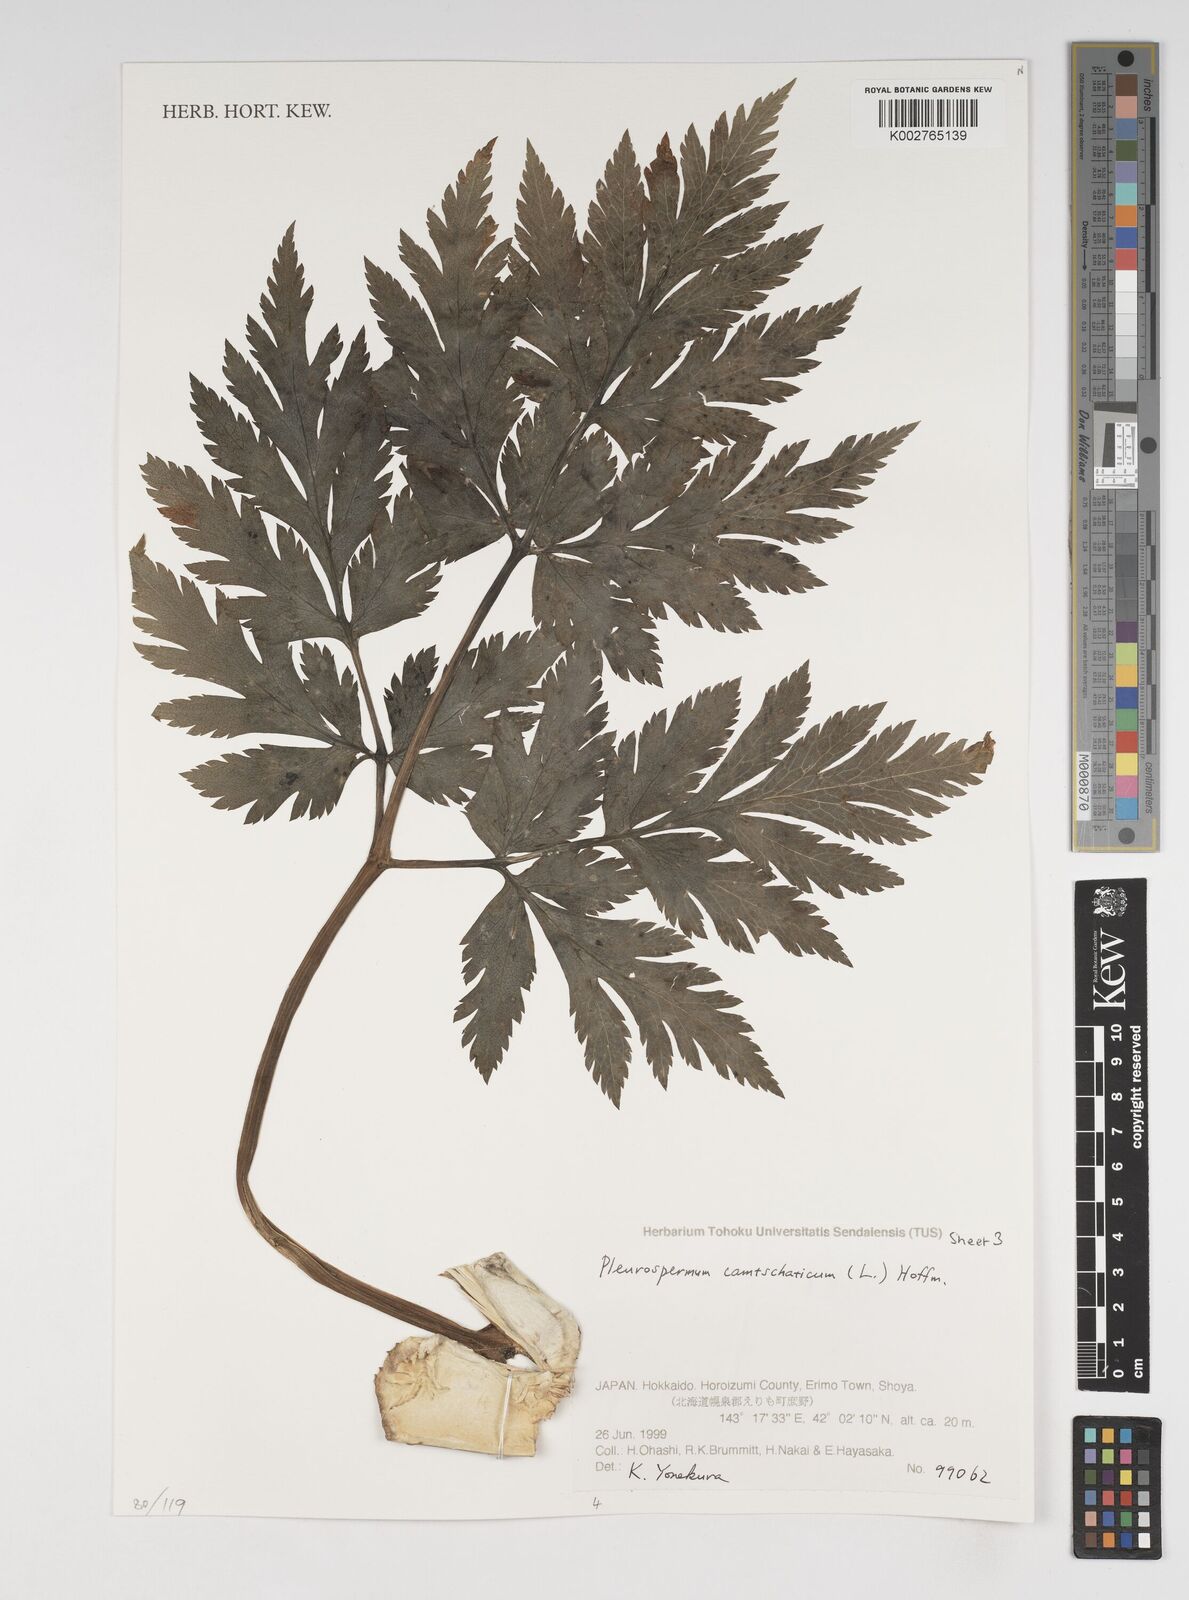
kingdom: Plantae
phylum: Tracheophyta
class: Magnoliopsida
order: Apiales
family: Apiaceae
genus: Pleurospermum
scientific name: Pleurospermum uralense
